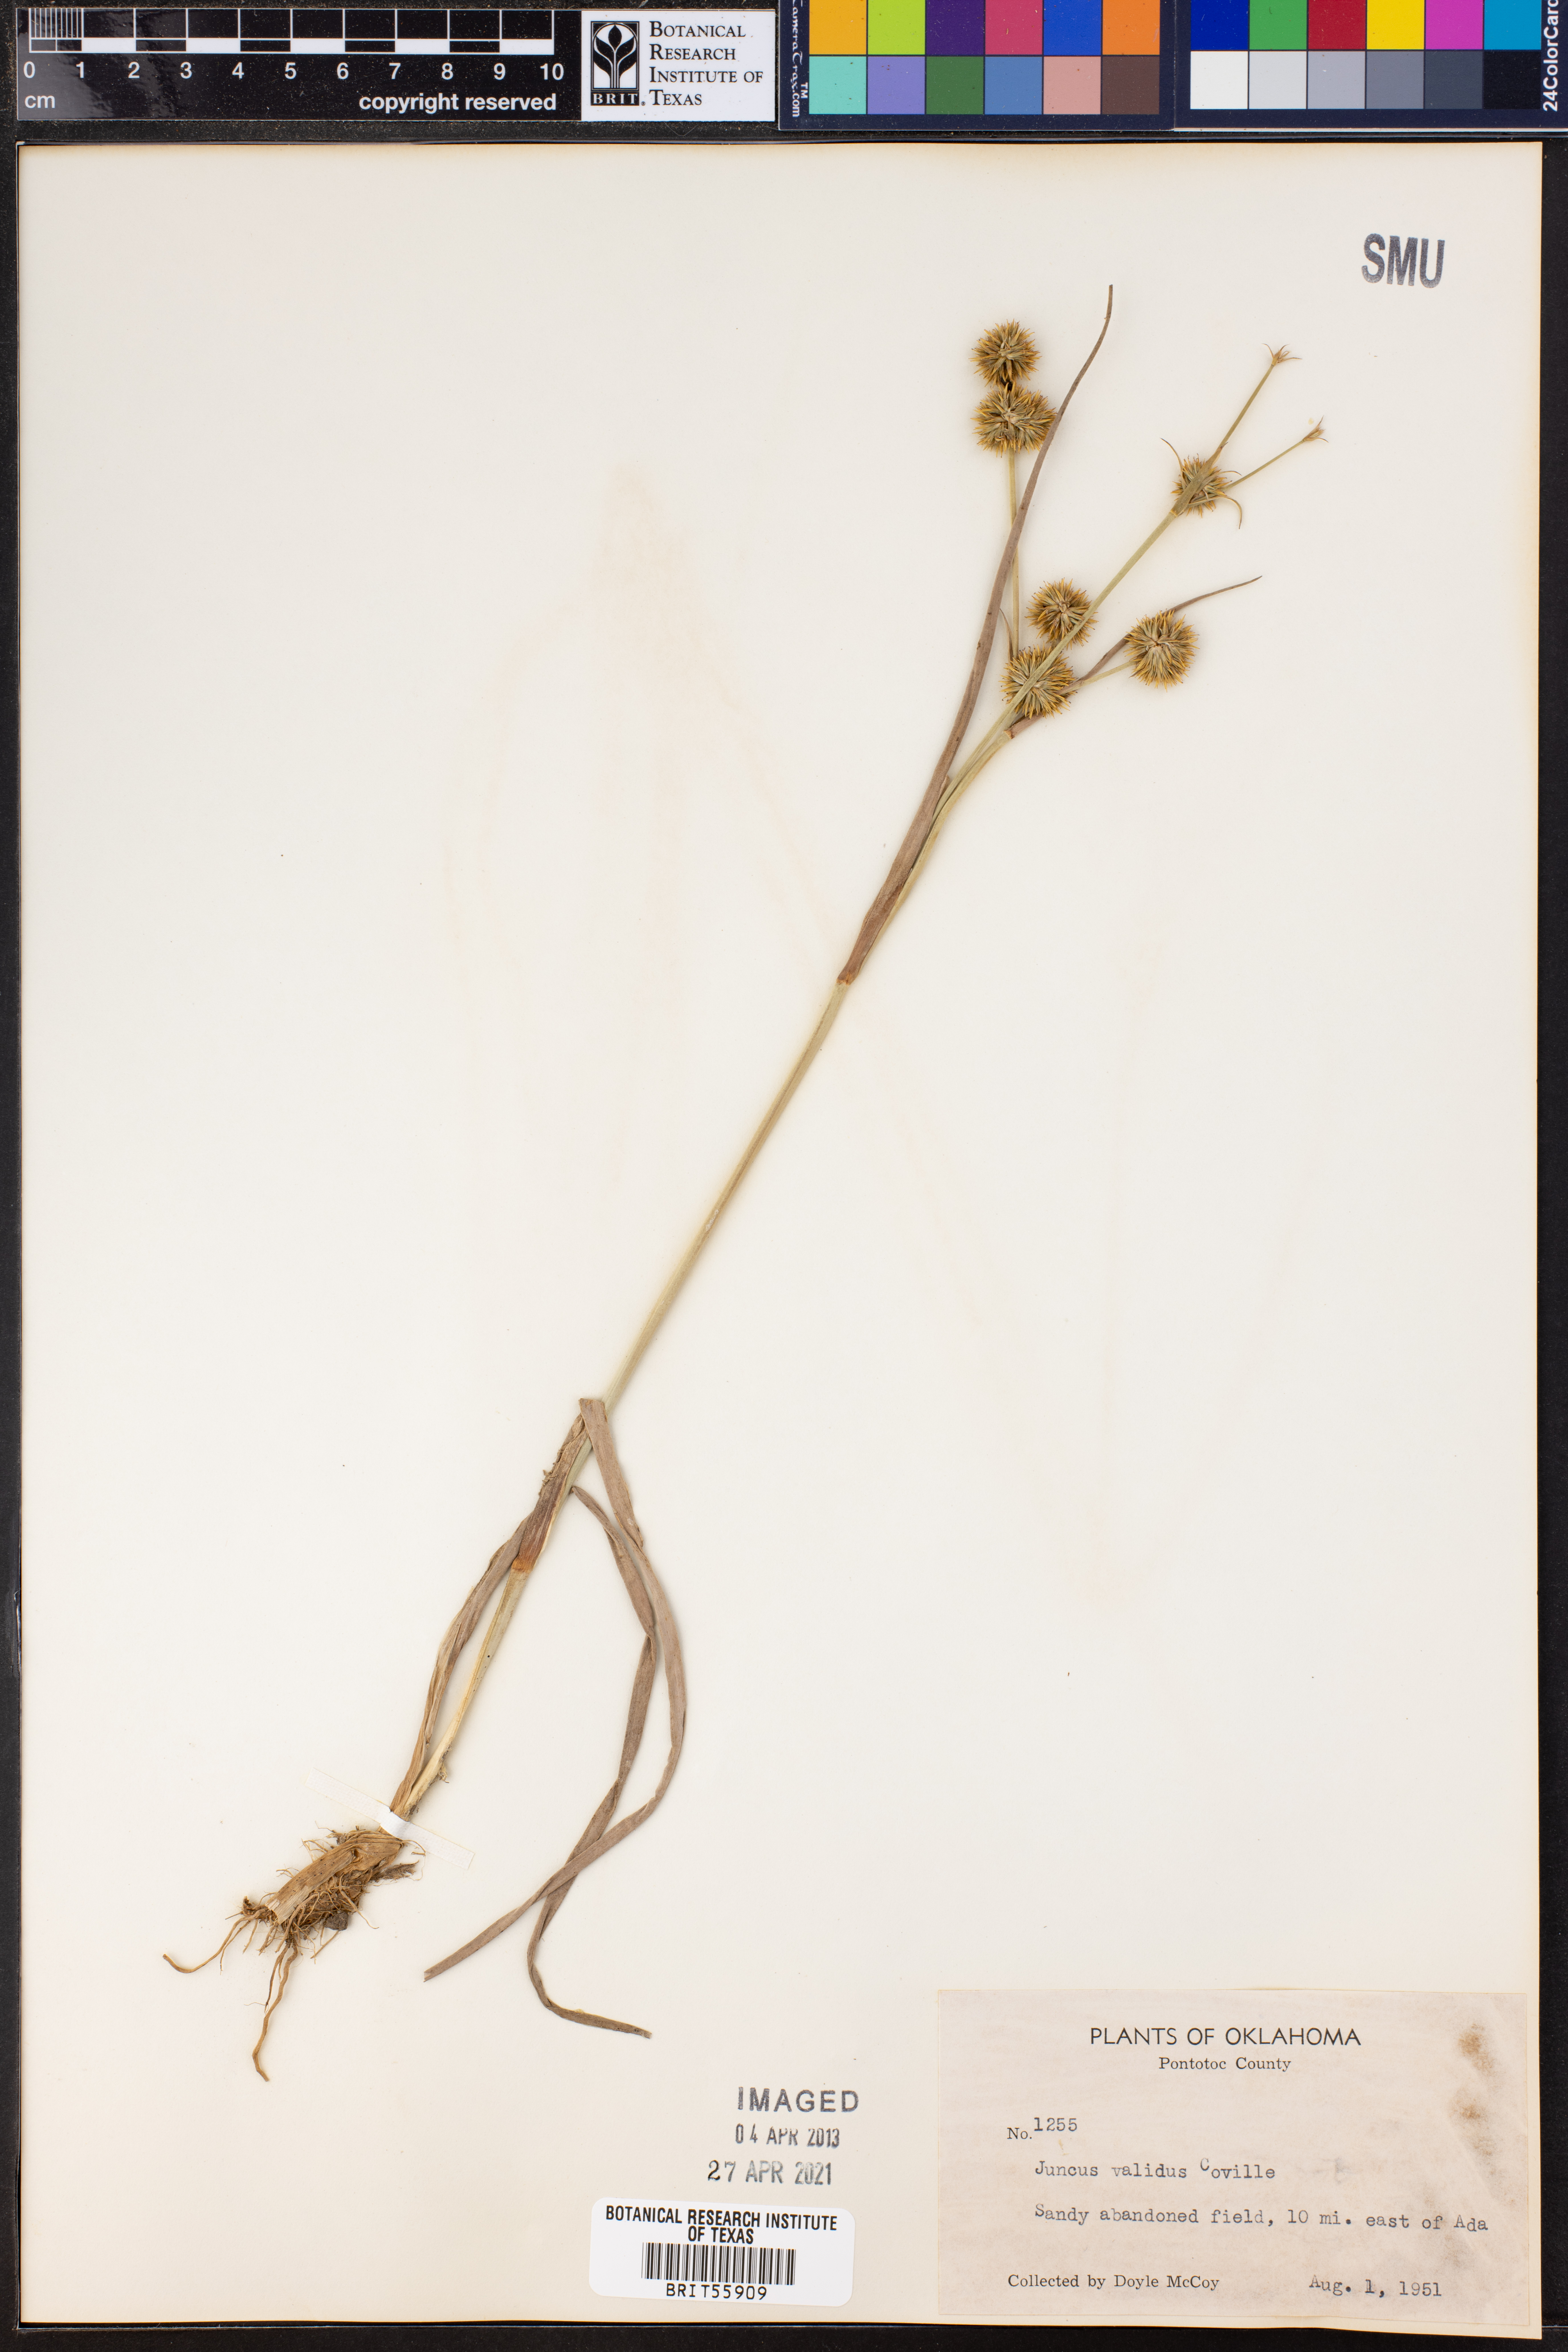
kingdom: Plantae
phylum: Tracheophyta
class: Liliopsida
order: Poales
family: Juncaceae
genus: Juncus
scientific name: Juncus validus
